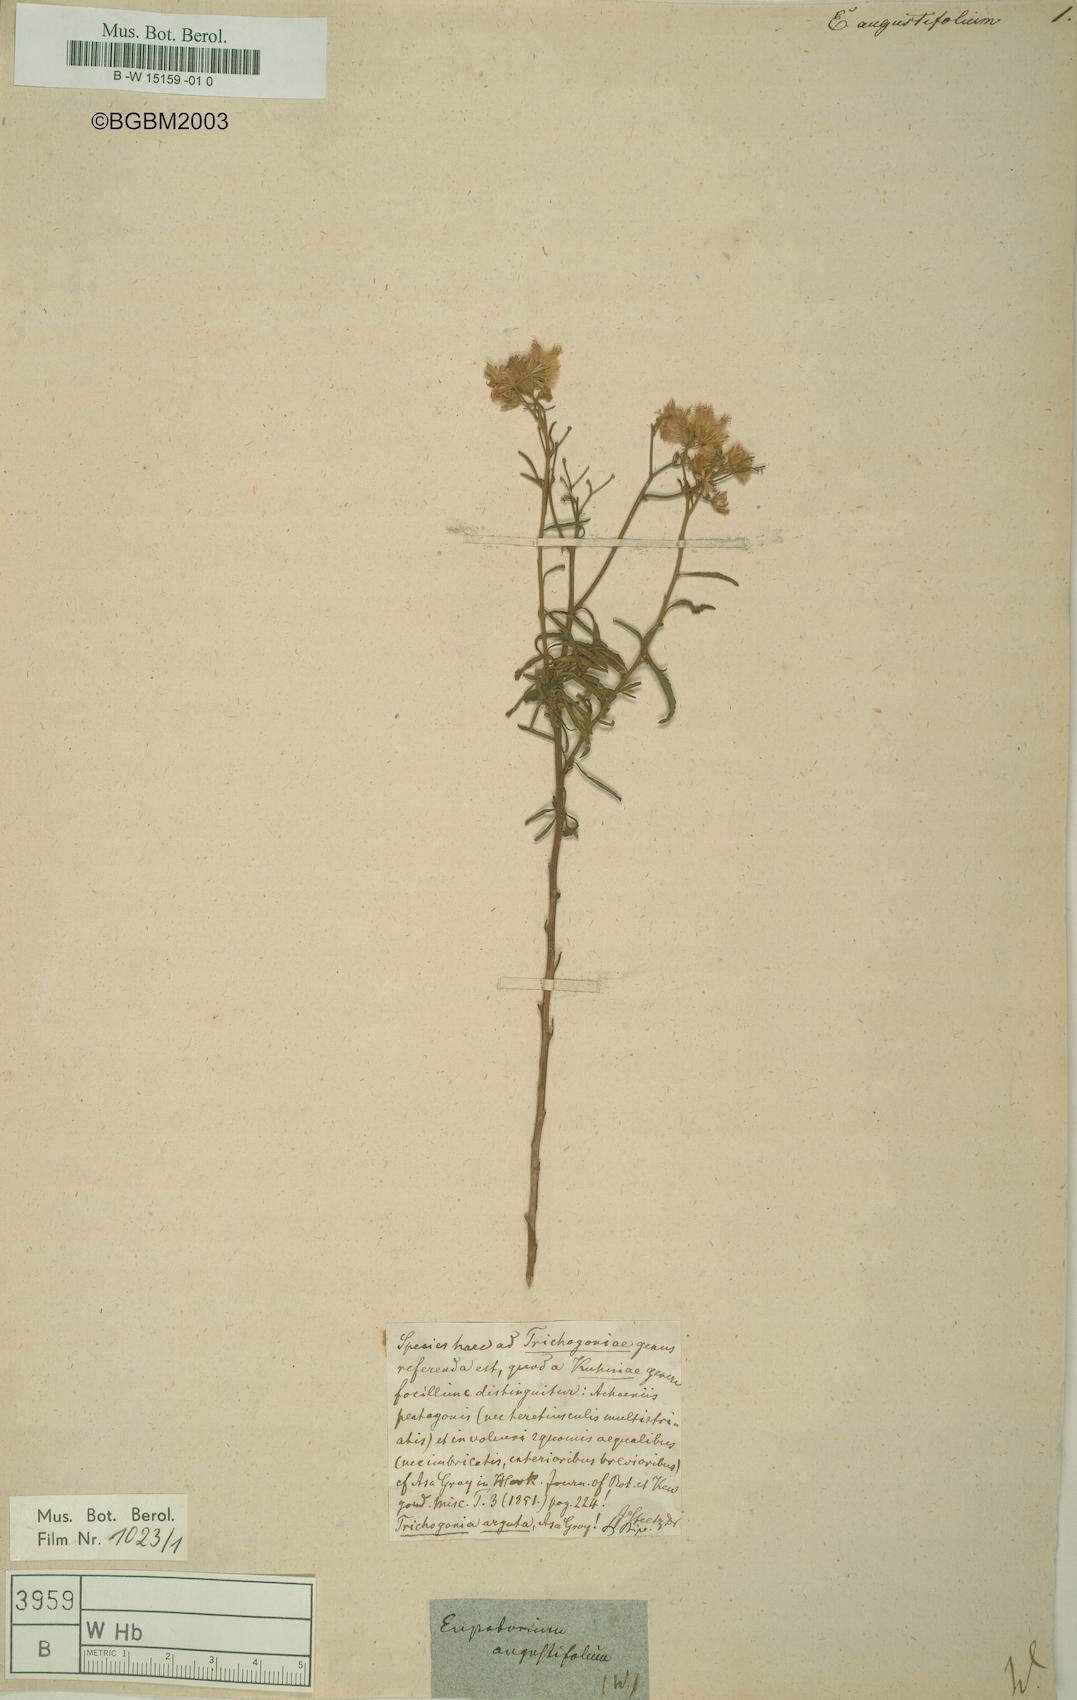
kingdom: Plantae
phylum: Tracheophyta
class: Magnoliopsida
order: Asterales
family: Asteraceae
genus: Ageratina
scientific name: Ageratina angustifolia
